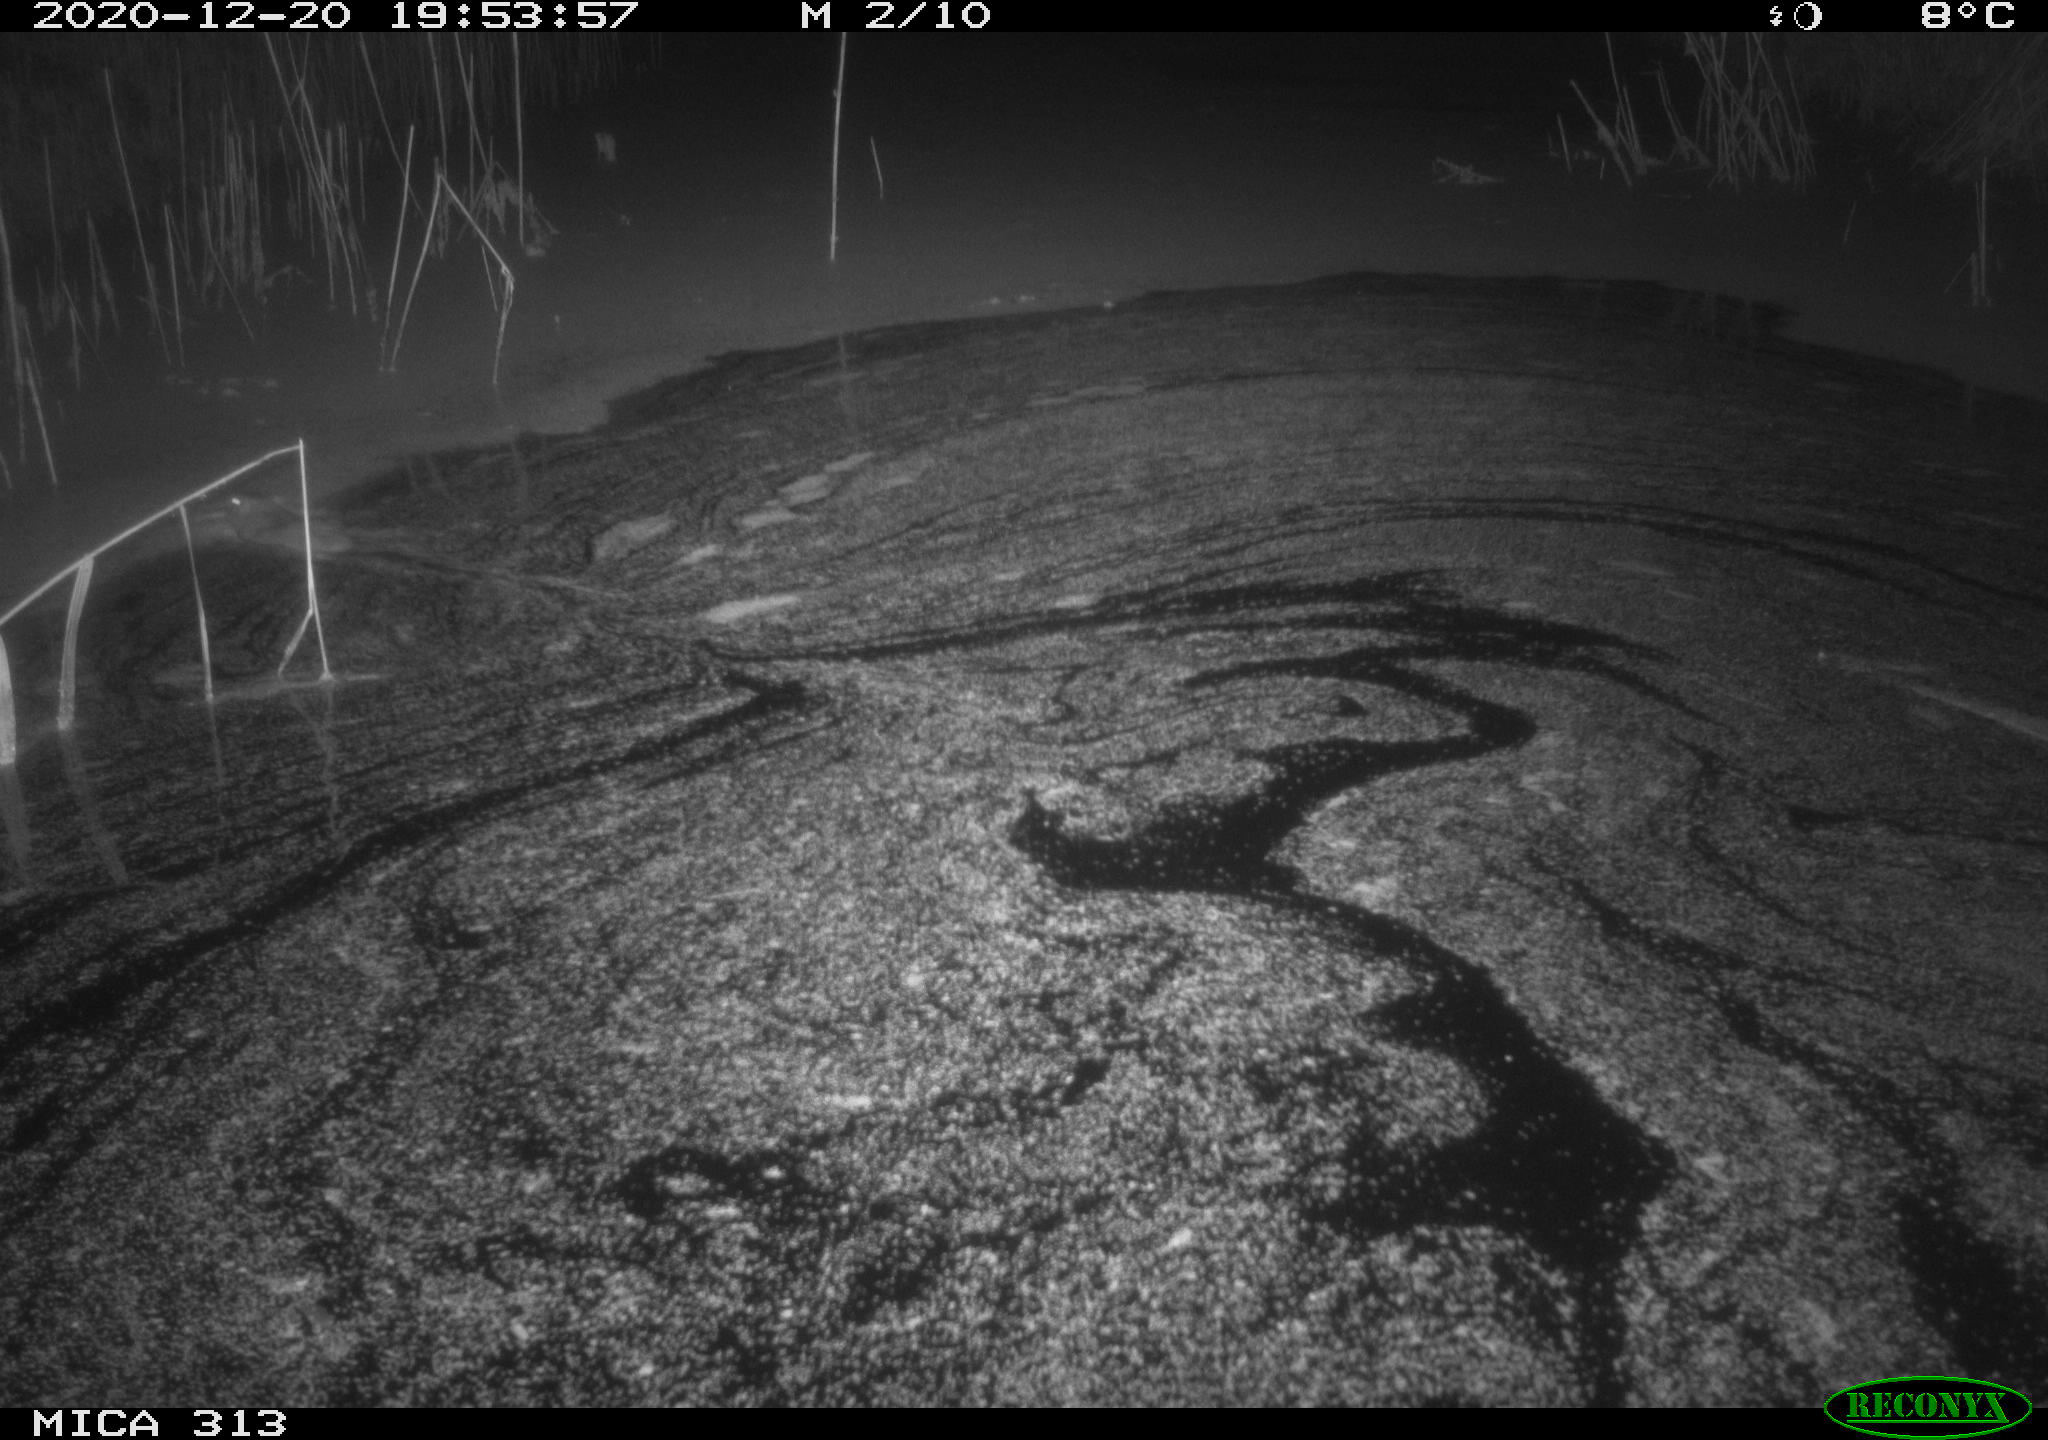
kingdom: Animalia
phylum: Chordata
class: Mammalia
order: Rodentia
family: Muridae
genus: Rattus
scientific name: Rattus norvegicus
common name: Brown rat
